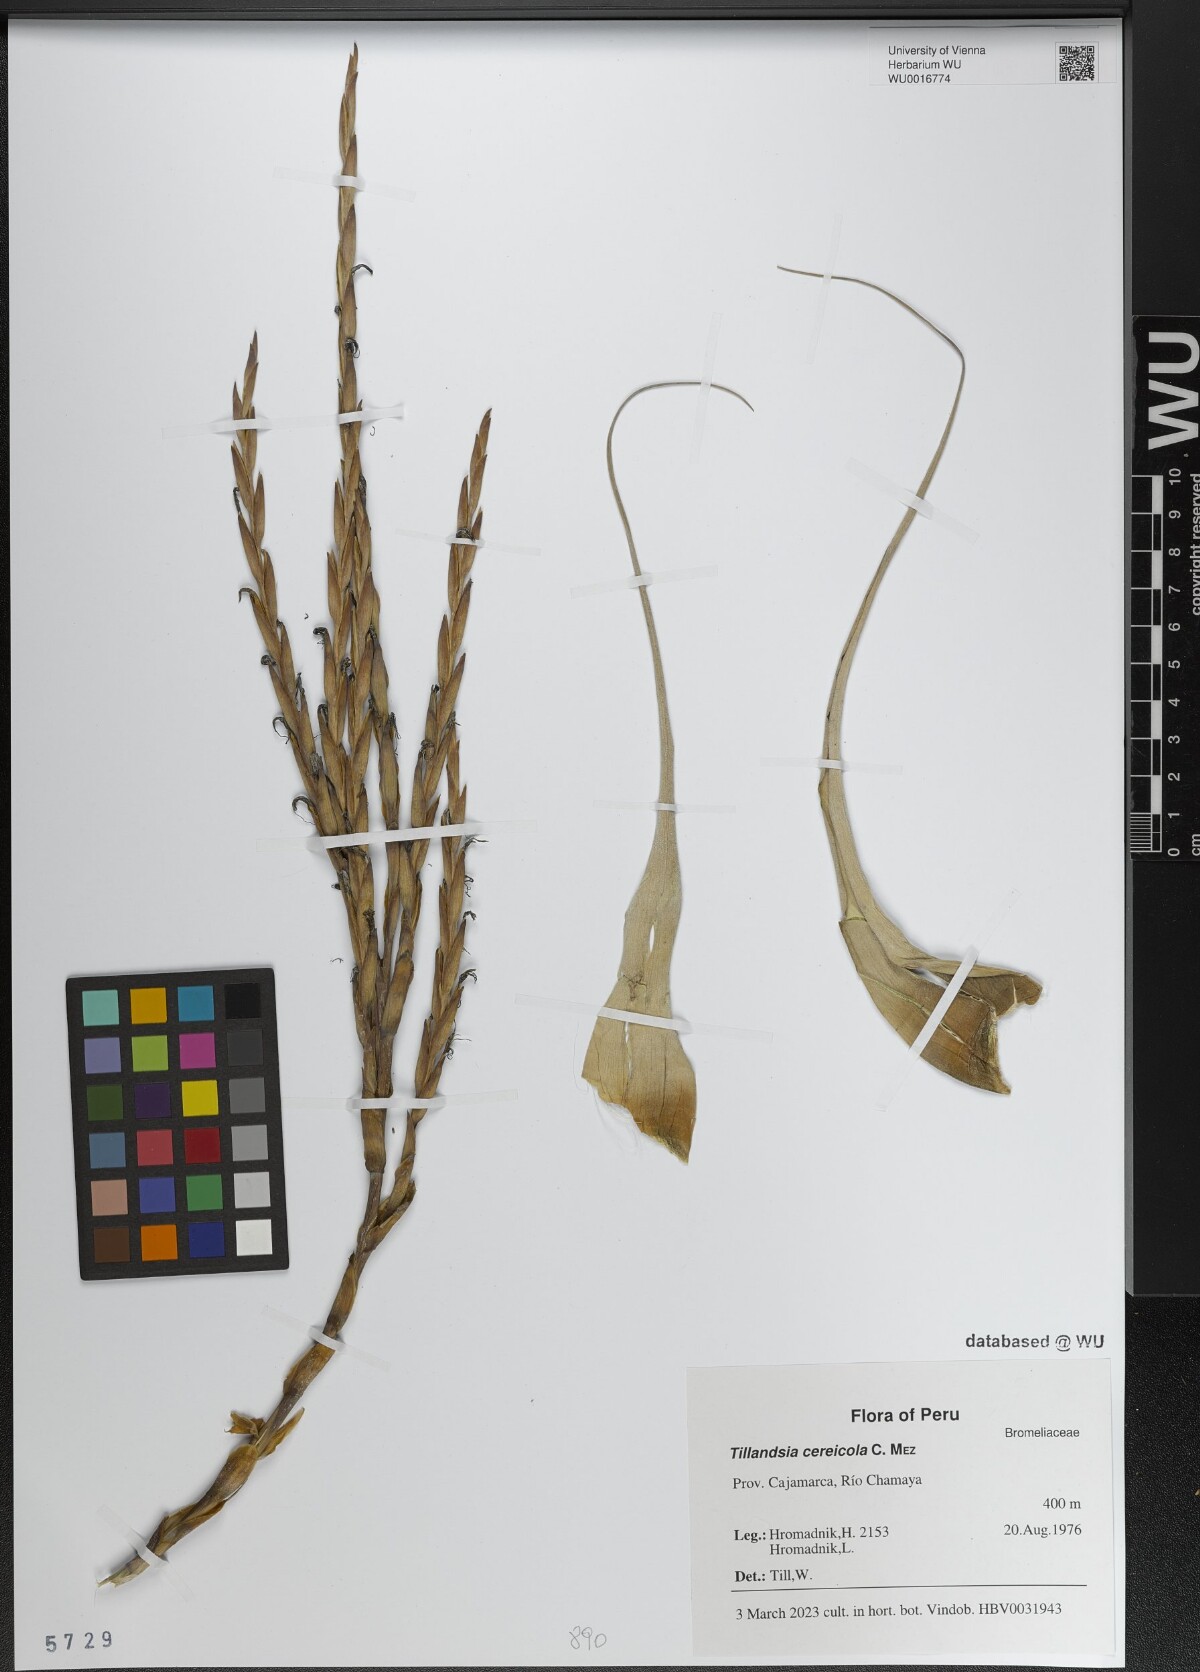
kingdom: Plantae
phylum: Tracheophyta
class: Liliopsida
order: Poales
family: Bromeliaceae
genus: Vriesea
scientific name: Vriesea cereicola
